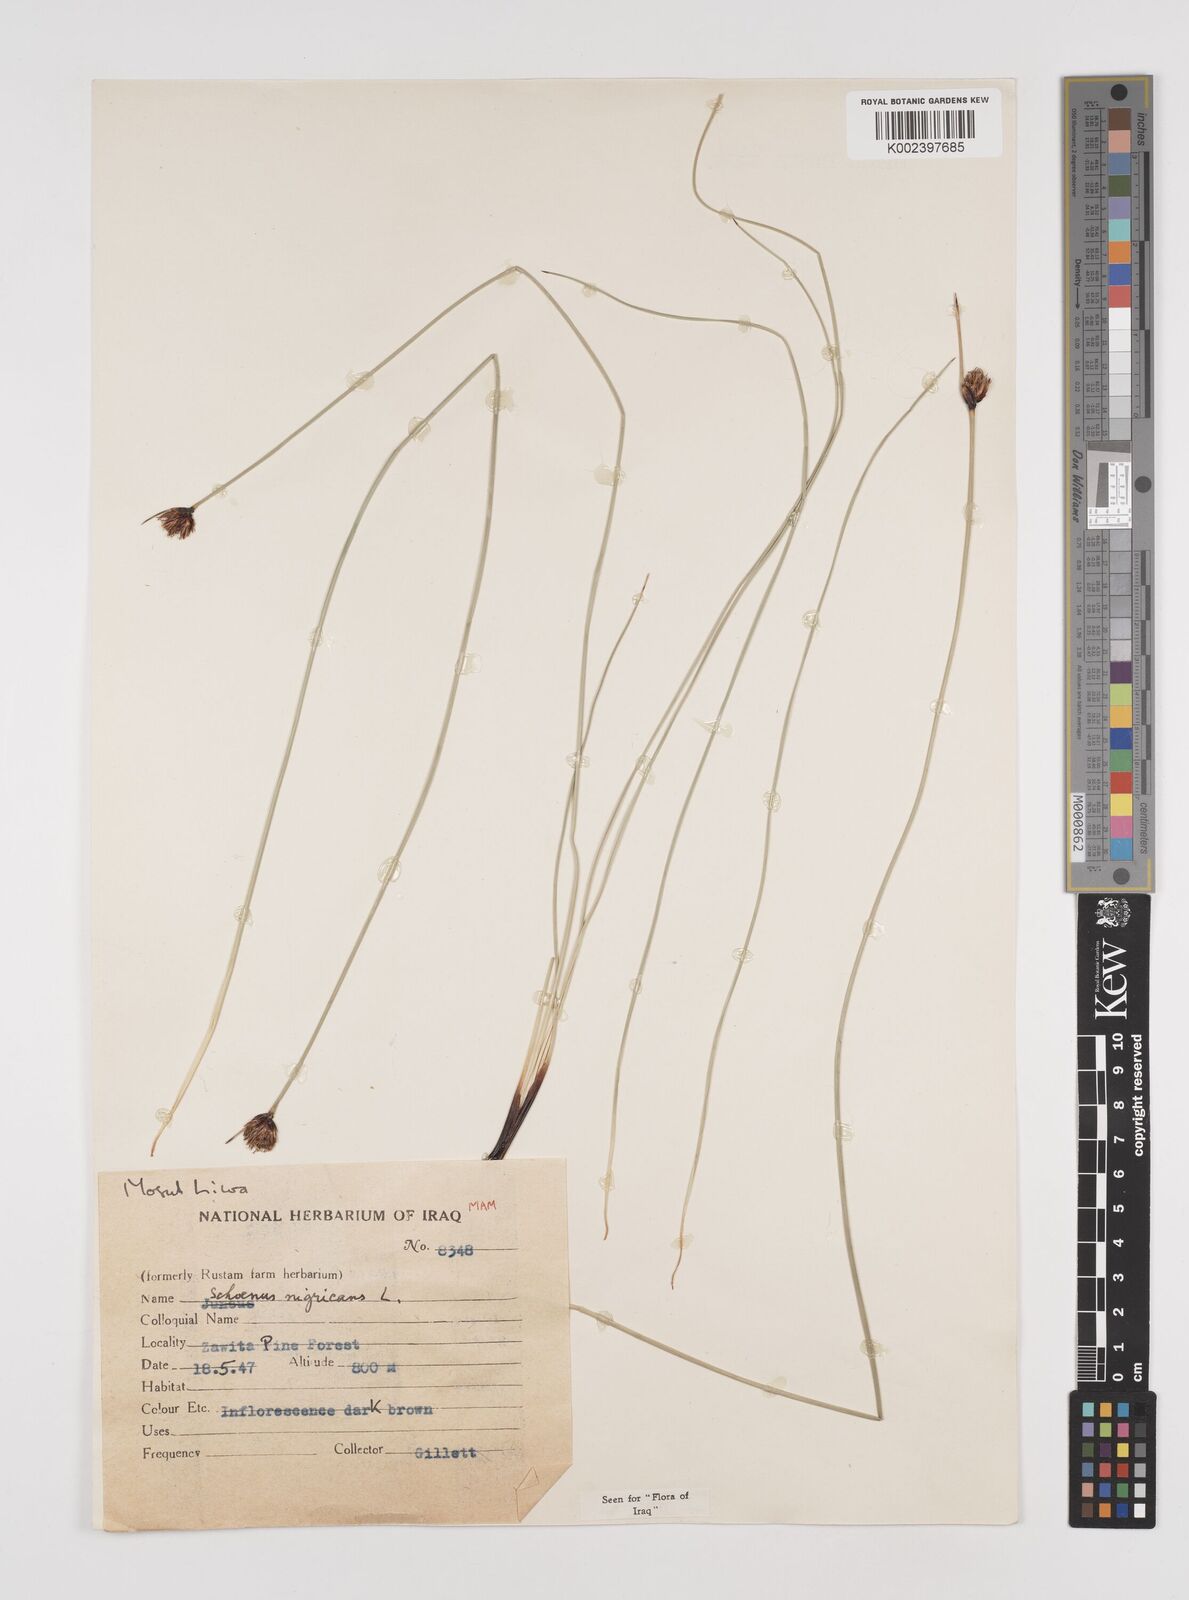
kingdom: Plantae
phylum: Tracheophyta
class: Liliopsida
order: Poales
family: Cyperaceae
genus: Schoenus
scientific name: Schoenus nigricans
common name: Black bog-rush
